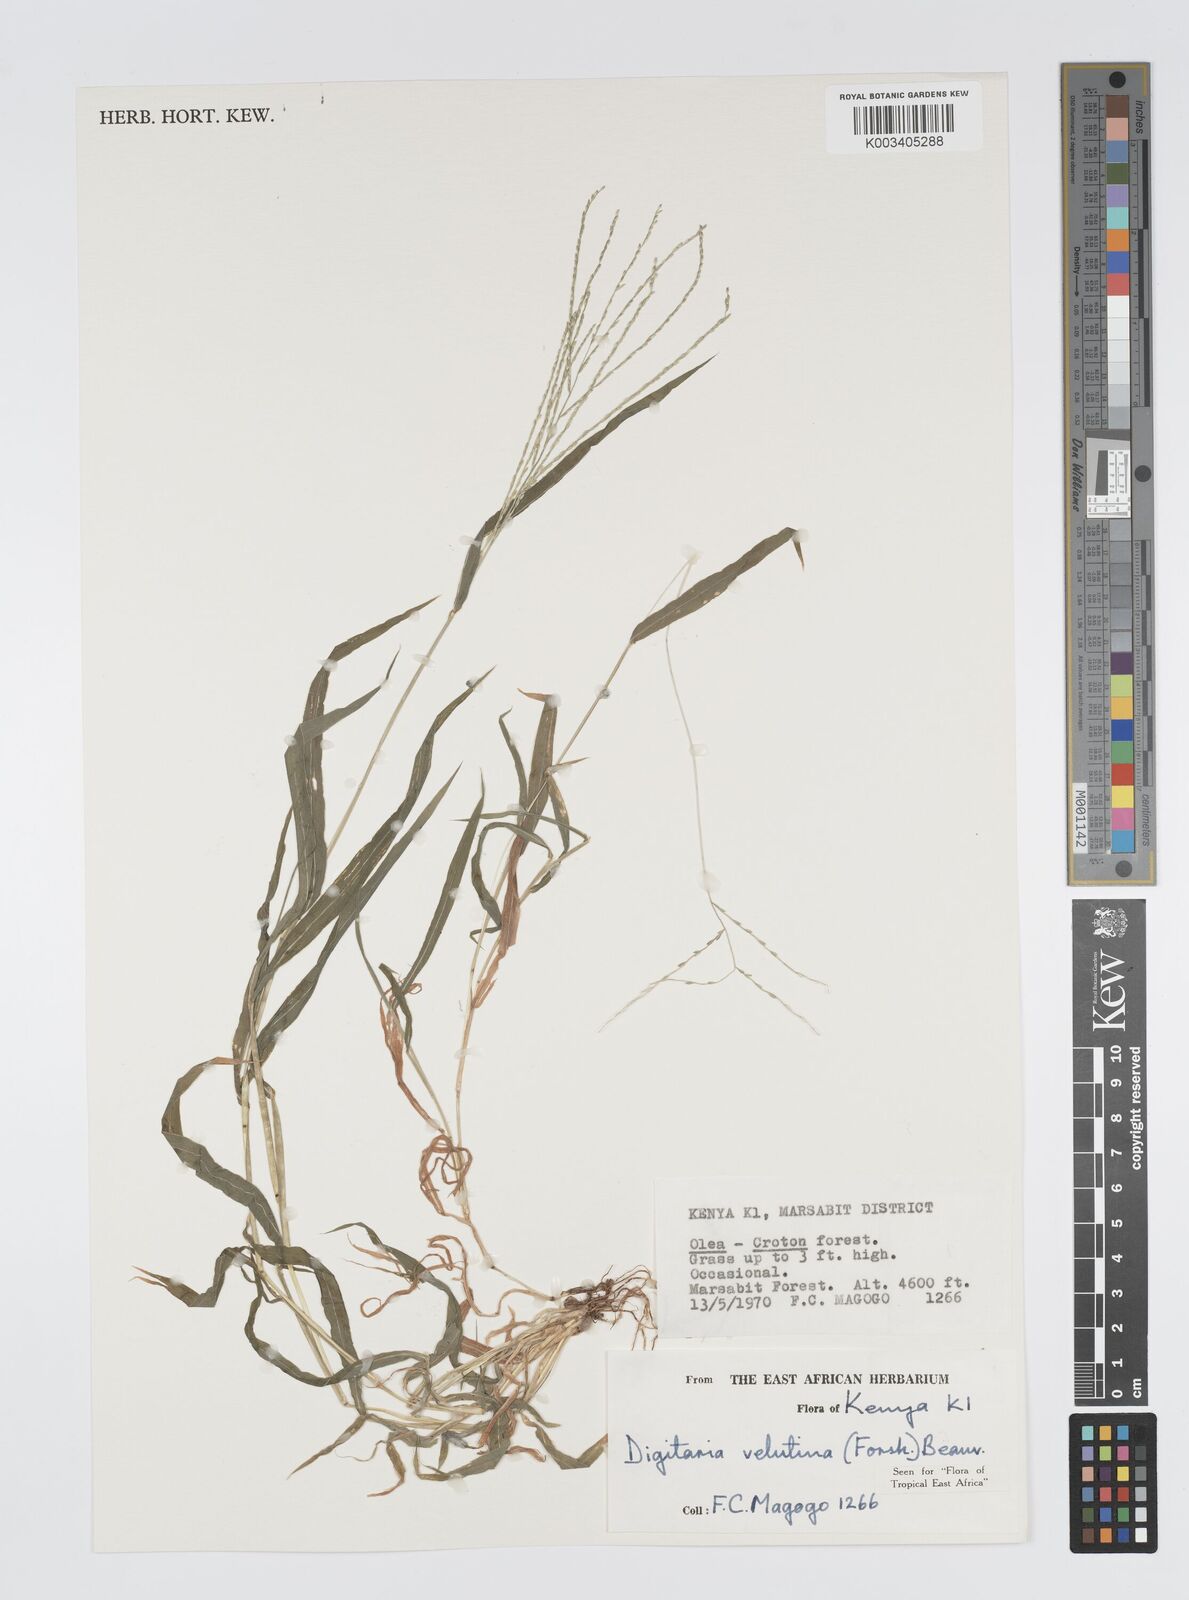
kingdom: Plantae
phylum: Tracheophyta
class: Liliopsida
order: Poales
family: Poaceae
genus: Digitaria
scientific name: Digitaria velutina
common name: Long-plume finger grass
